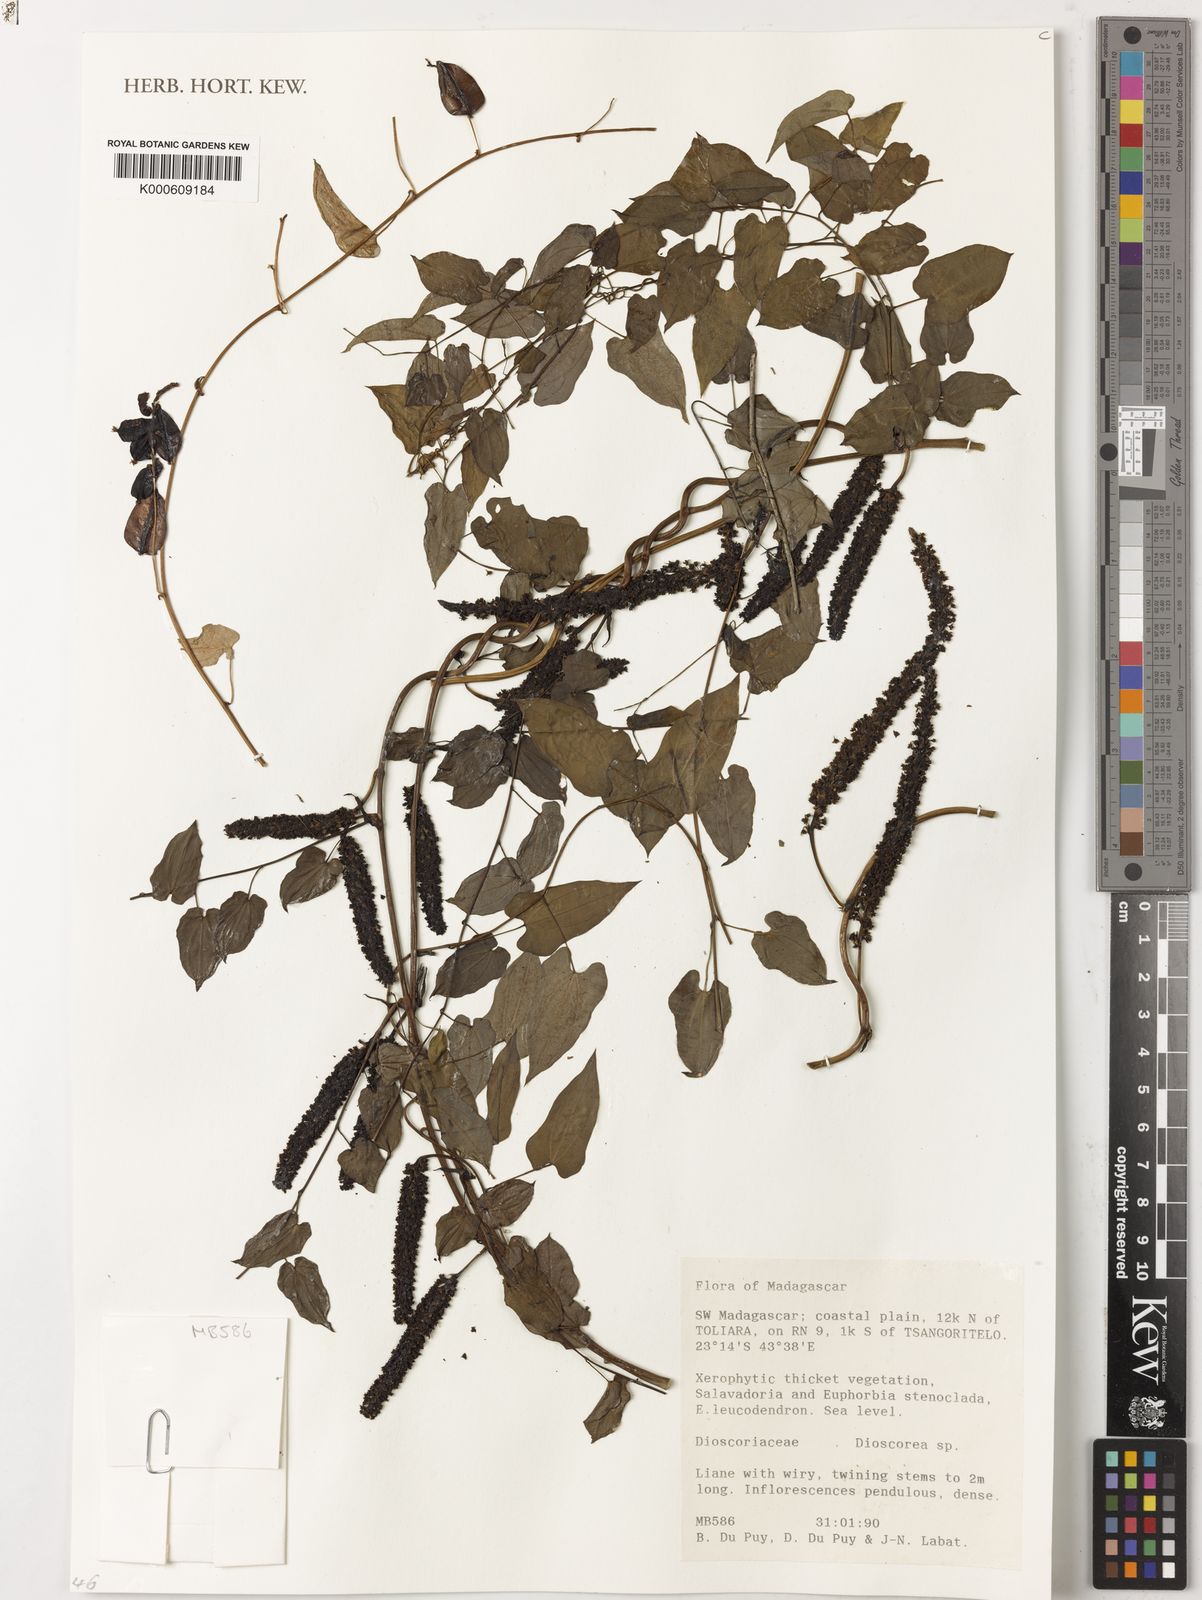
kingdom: Plantae
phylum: Tracheophyta
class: Liliopsida
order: Dioscoreales
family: Dioscoreaceae
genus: Dioscorea
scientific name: Dioscorea
